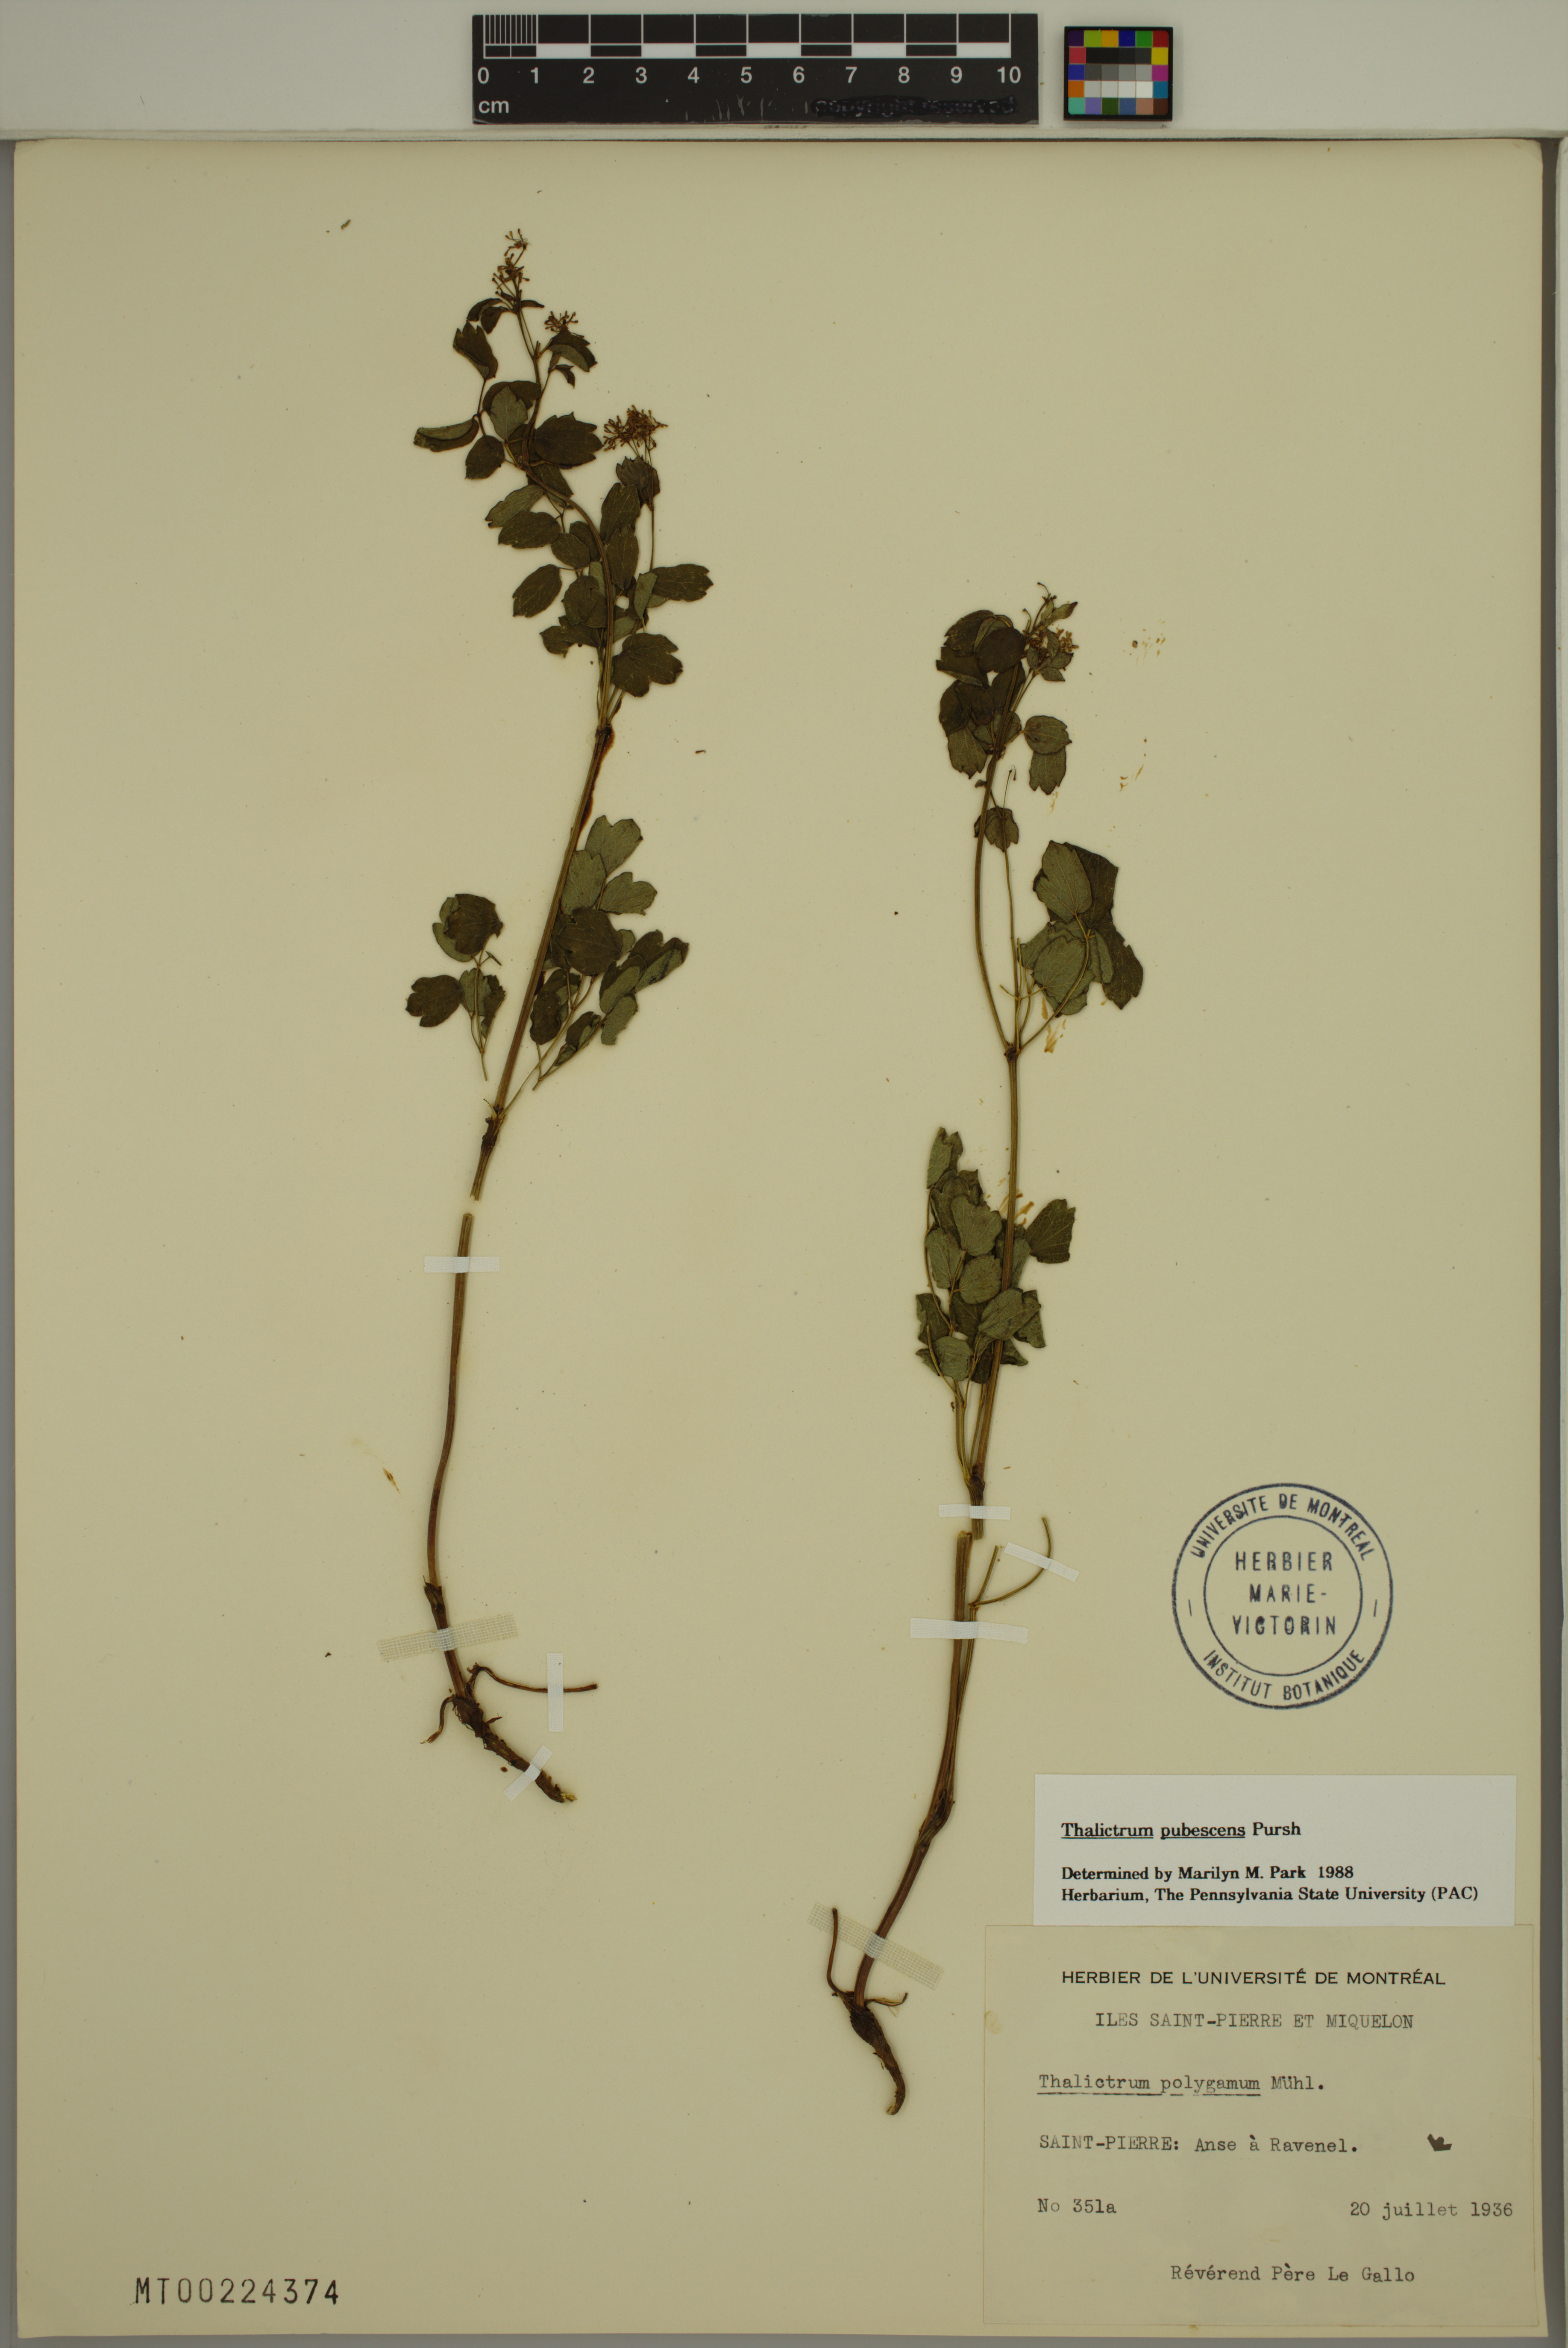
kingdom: Plantae
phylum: Tracheophyta
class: Magnoliopsida
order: Ranunculales
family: Ranunculaceae
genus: Thalictrum
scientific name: Thalictrum pubescens
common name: King-of-the-meadow
